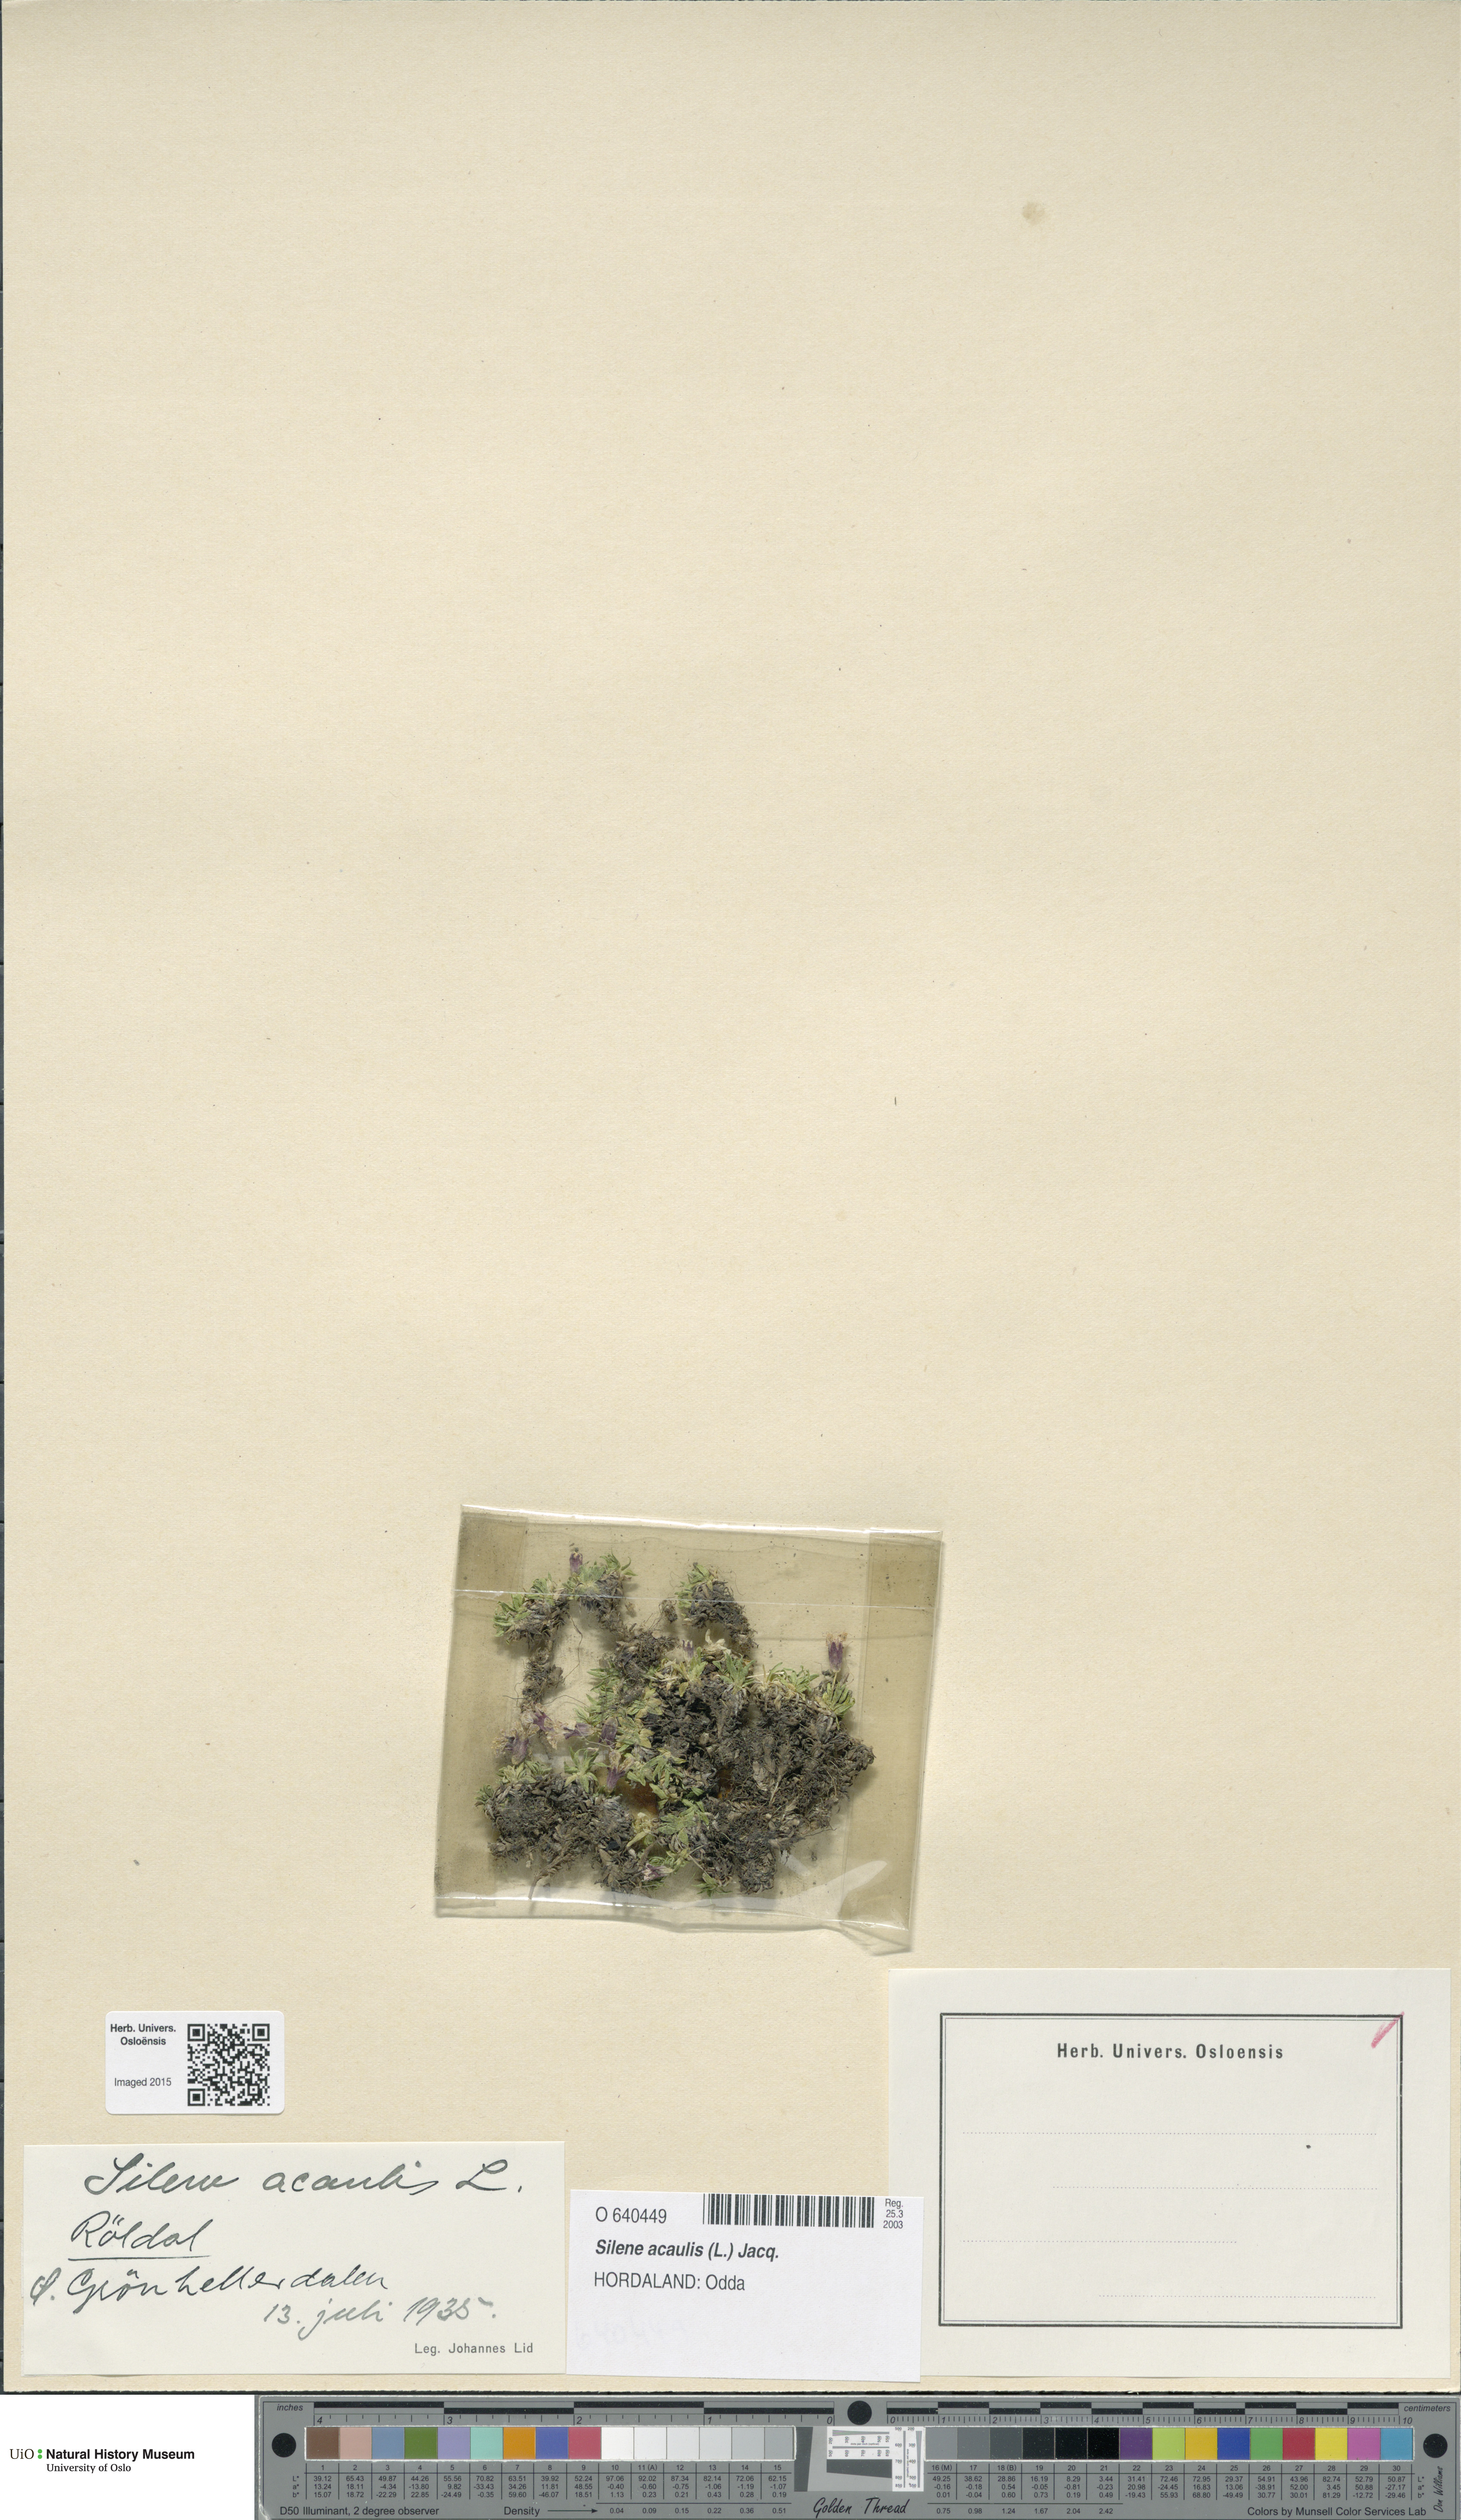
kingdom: Plantae
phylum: Tracheophyta
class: Magnoliopsida
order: Caryophyllales
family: Caryophyllaceae
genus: Silene
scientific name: Silene acaulis
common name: Moss campion
